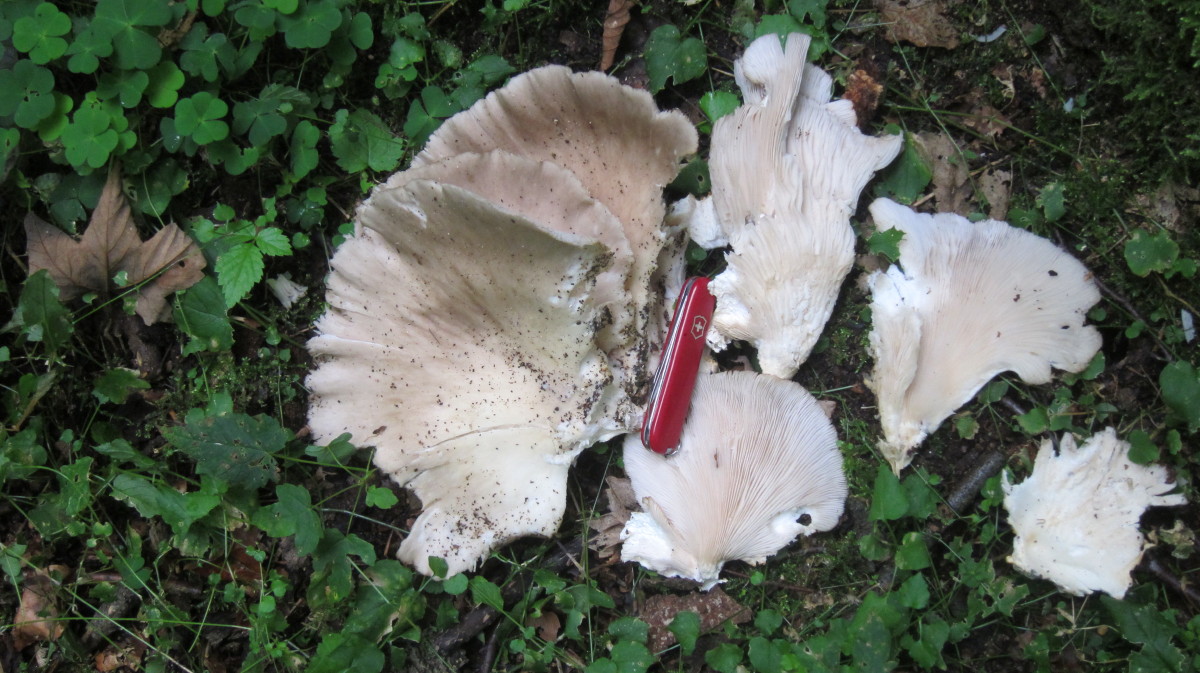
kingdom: Fungi
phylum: Basidiomycota
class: Agaricomycetes
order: Agaricales
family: Pleurotaceae
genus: Pleurotus
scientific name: Pleurotus pulmonarius
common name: sommer-østershat
